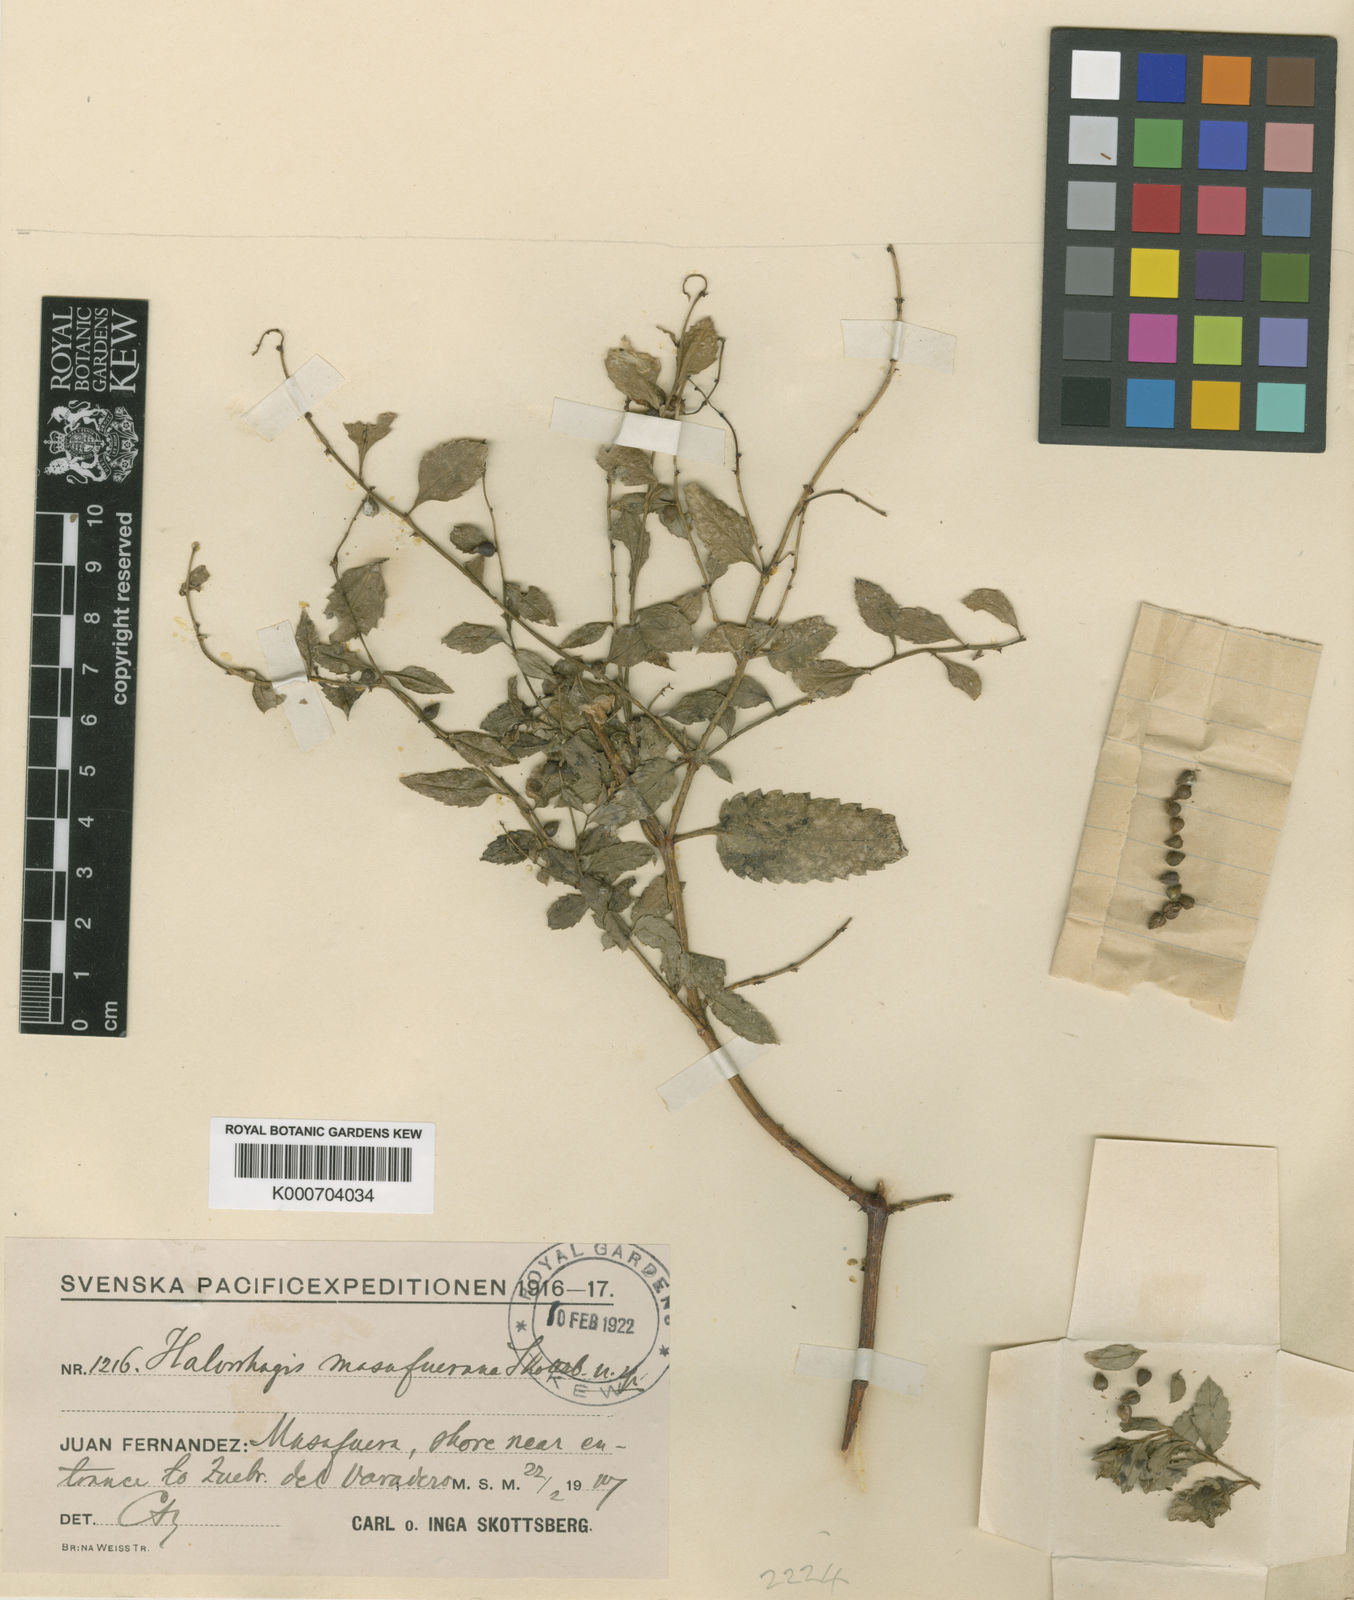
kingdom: Plantae
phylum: Tracheophyta
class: Magnoliopsida
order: Saxifragales
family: Haloragaceae
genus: Haloragis
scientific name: Haloragis masafuerana
